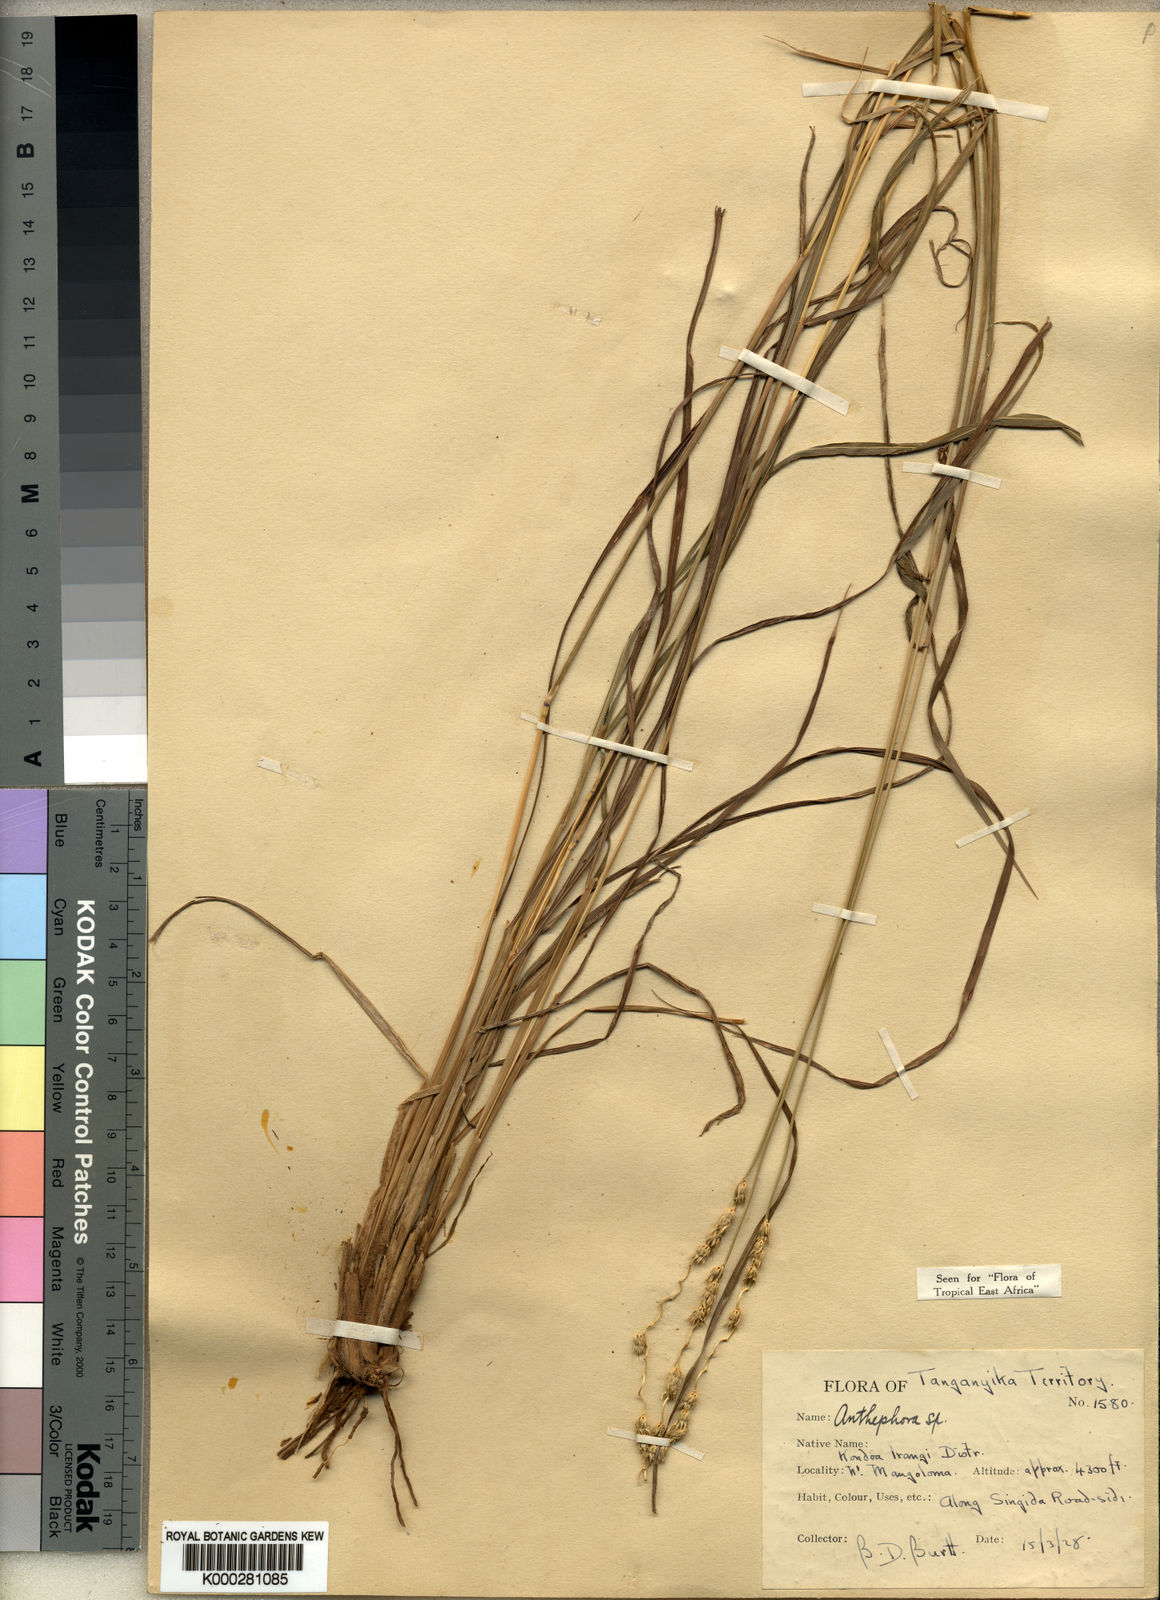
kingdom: Plantae
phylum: Tracheophyta
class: Liliopsida
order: Poales
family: Poaceae
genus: Anthephora
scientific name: Anthephora elongata
